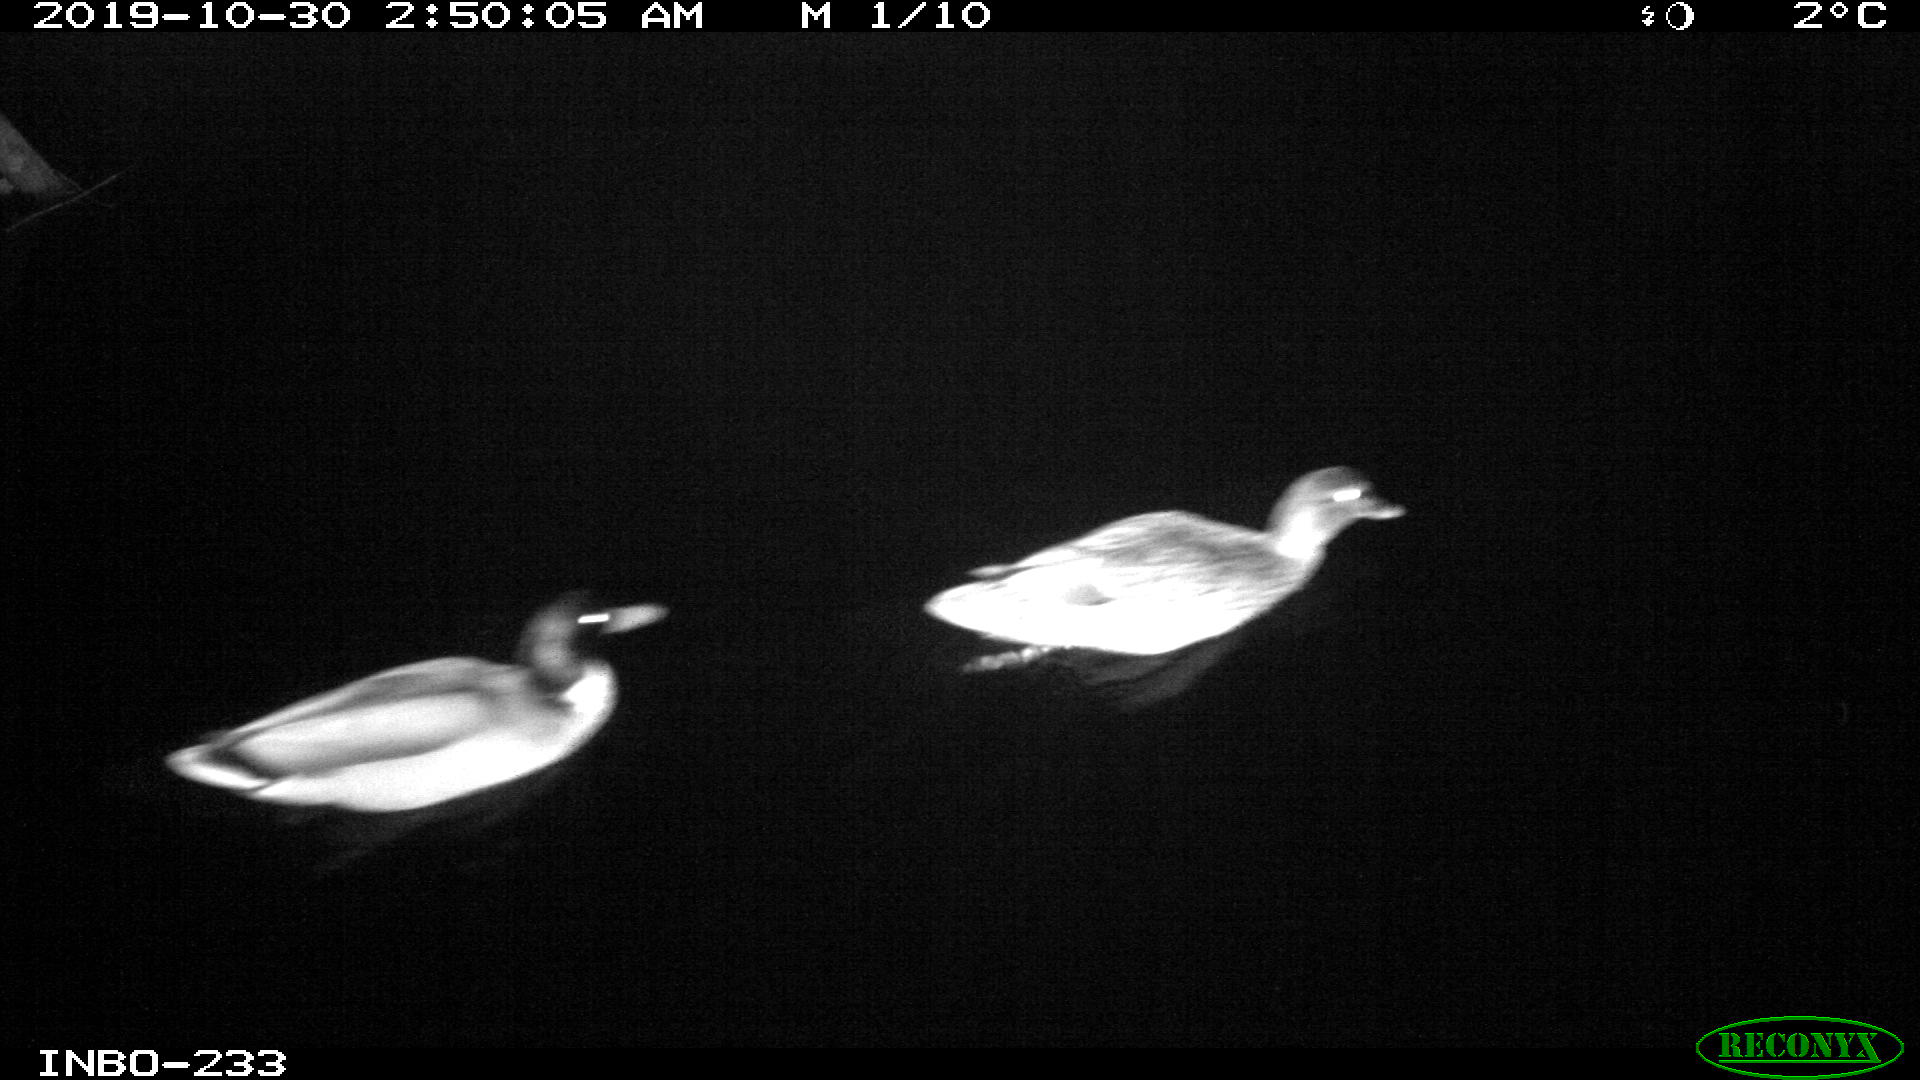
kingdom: Animalia
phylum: Chordata
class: Aves
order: Anseriformes
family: Anatidae
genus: Anas
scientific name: Anas platyrhynchos
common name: Mallard
